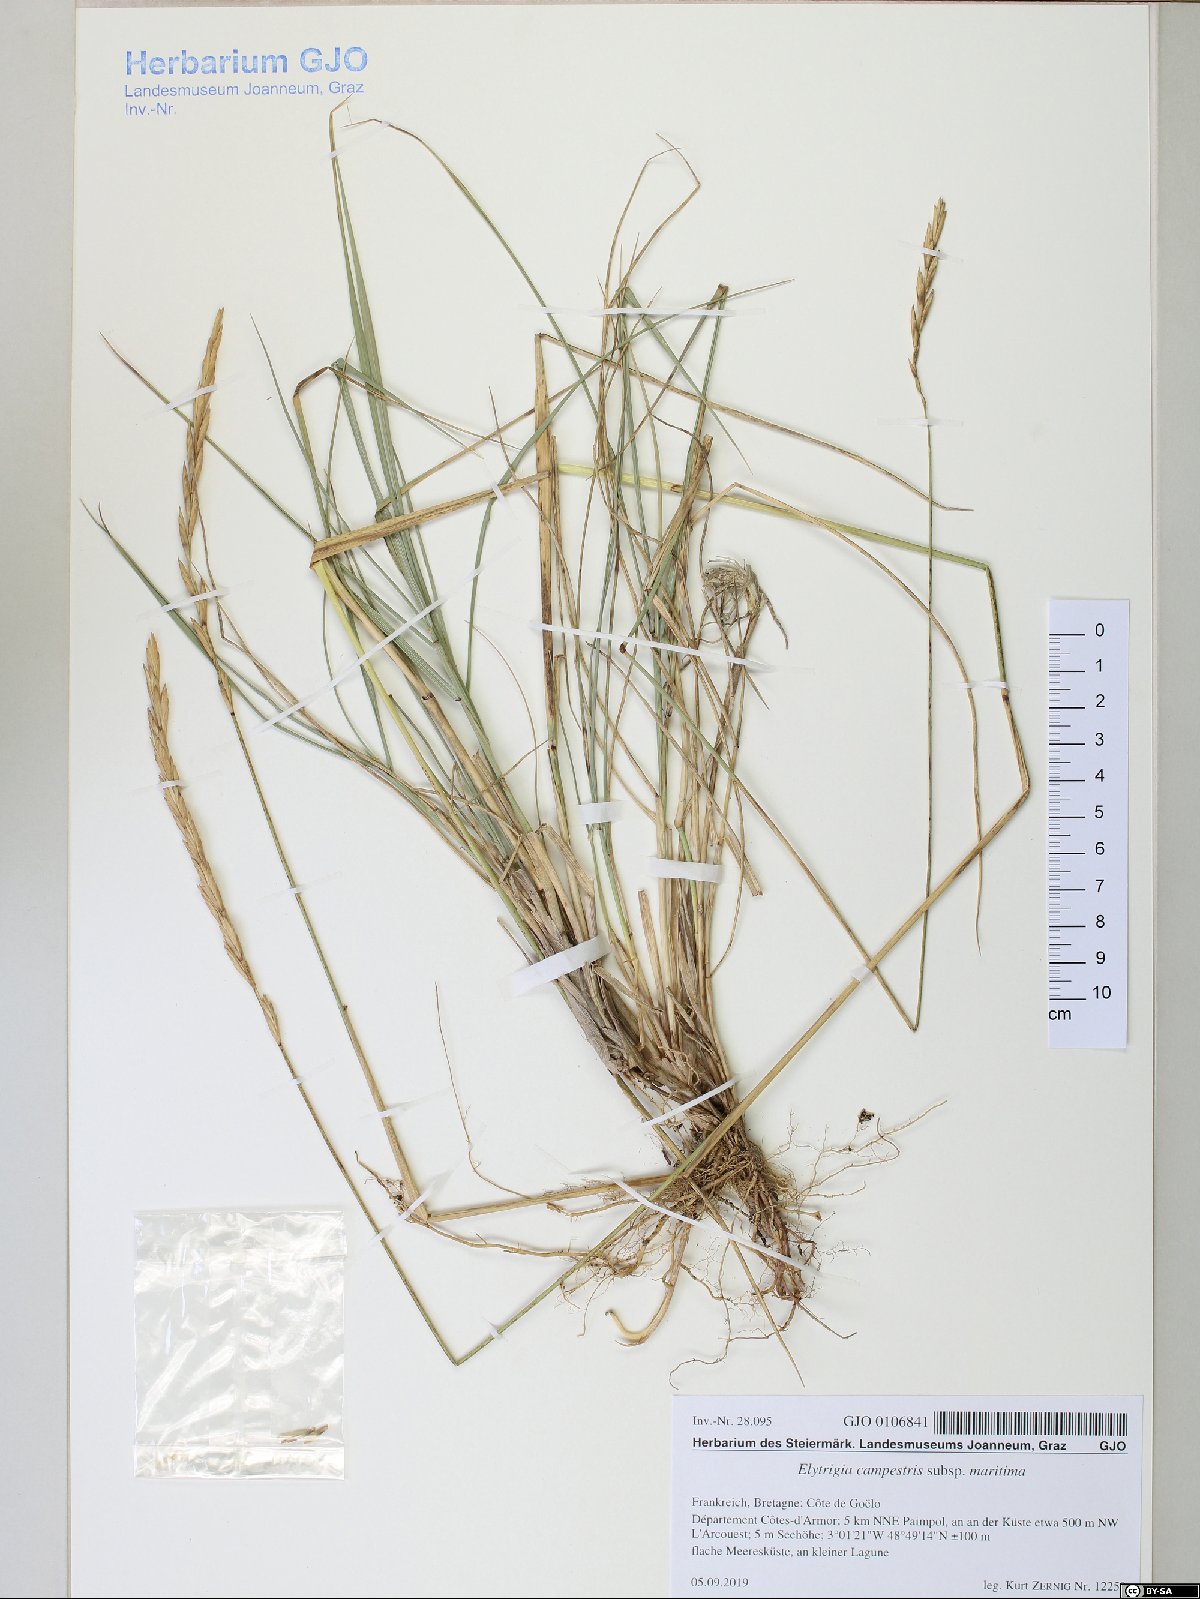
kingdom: Plantae
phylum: Tracheophyta
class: Liliopsida
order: Poales
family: Poaceae
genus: Elymus
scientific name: Elymus repens
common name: Quackgrass
